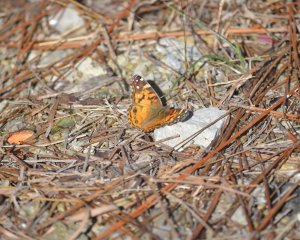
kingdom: Animalia
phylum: Arthropoda
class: Insecta
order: Lepidoptera
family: Nymphalidae
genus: Vanessa
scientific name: Vanessa virginiensis
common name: American Lady
